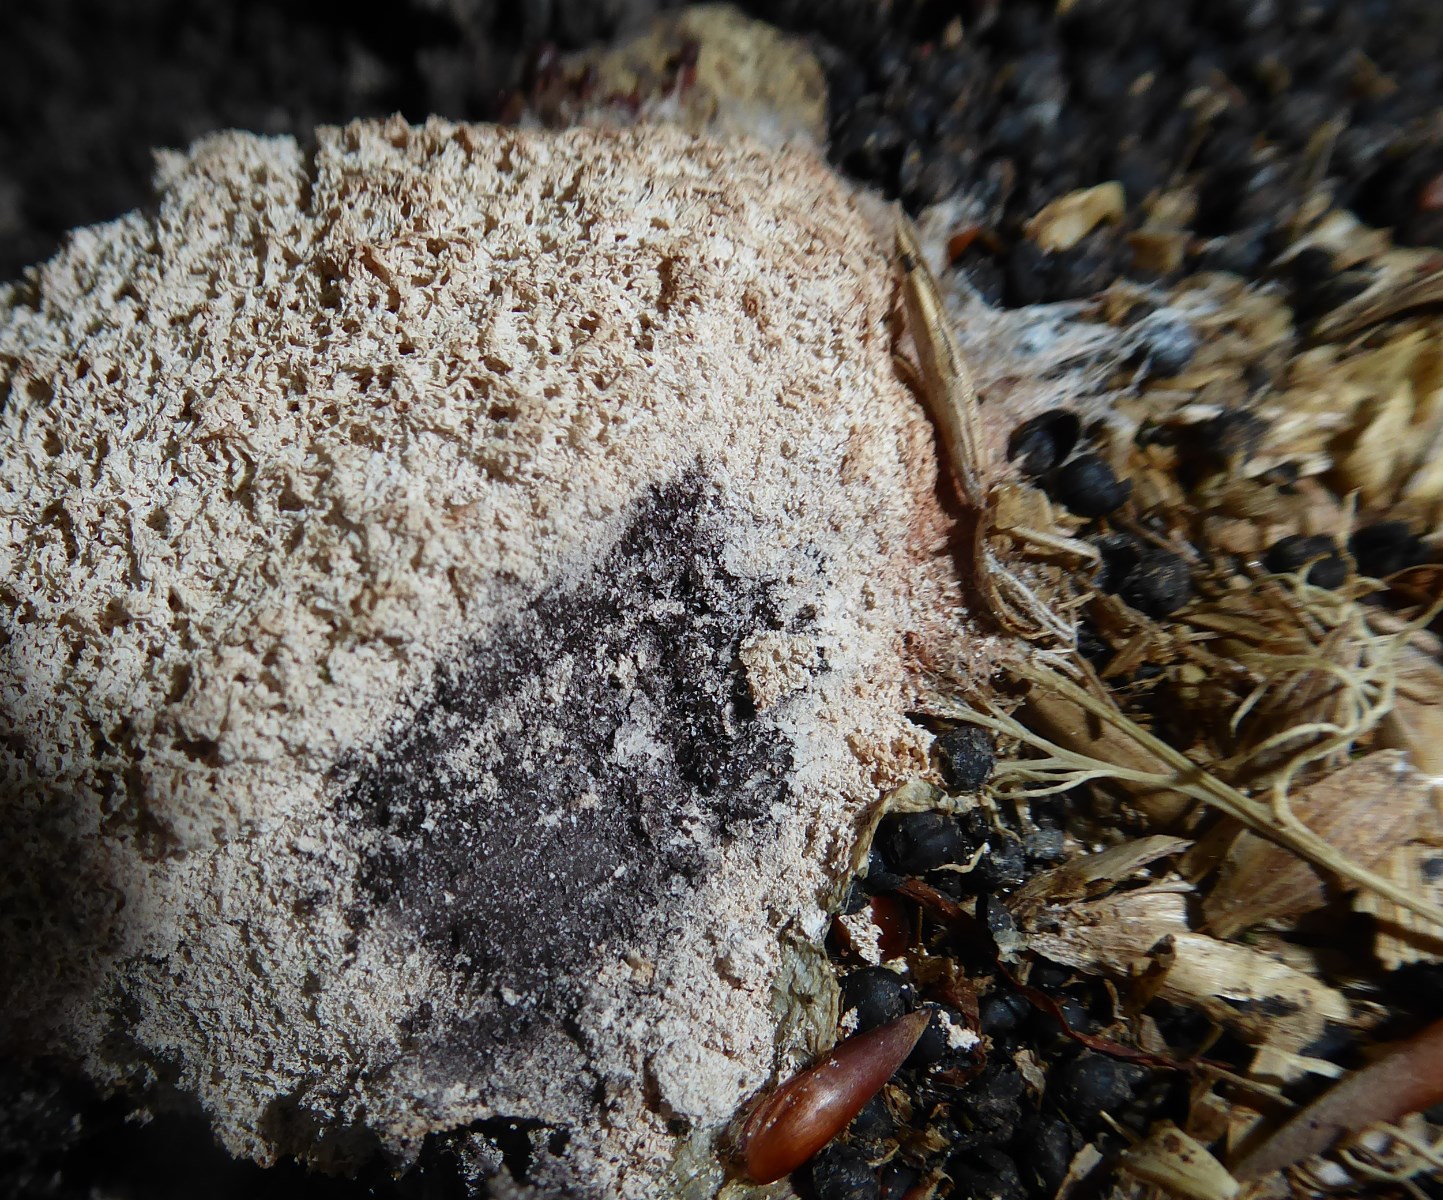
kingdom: Protozoa
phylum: Mycetozoa
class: Myxomycetes
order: Physarales
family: Physaraceae
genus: Fuligo
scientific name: Fuligo
